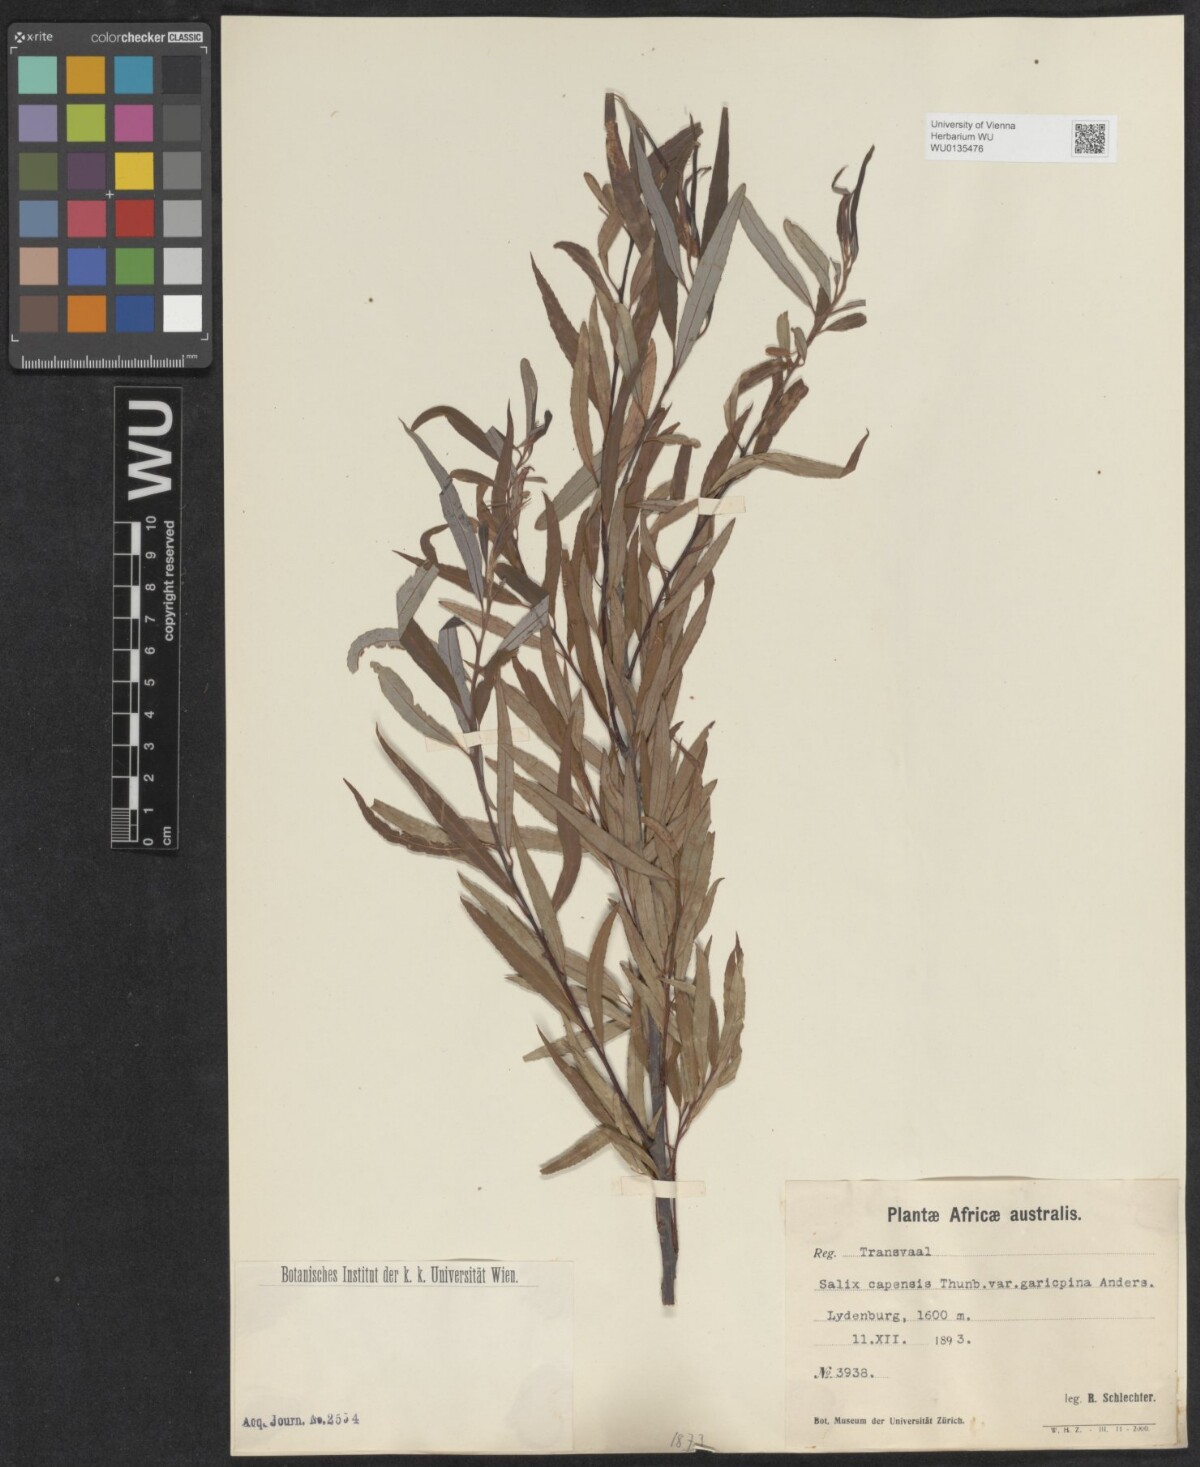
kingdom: Plantae
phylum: Tracheophyta
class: Magnoliopsida
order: Malpighiales
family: Salicaceae
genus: Salix
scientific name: Salix mucronata
